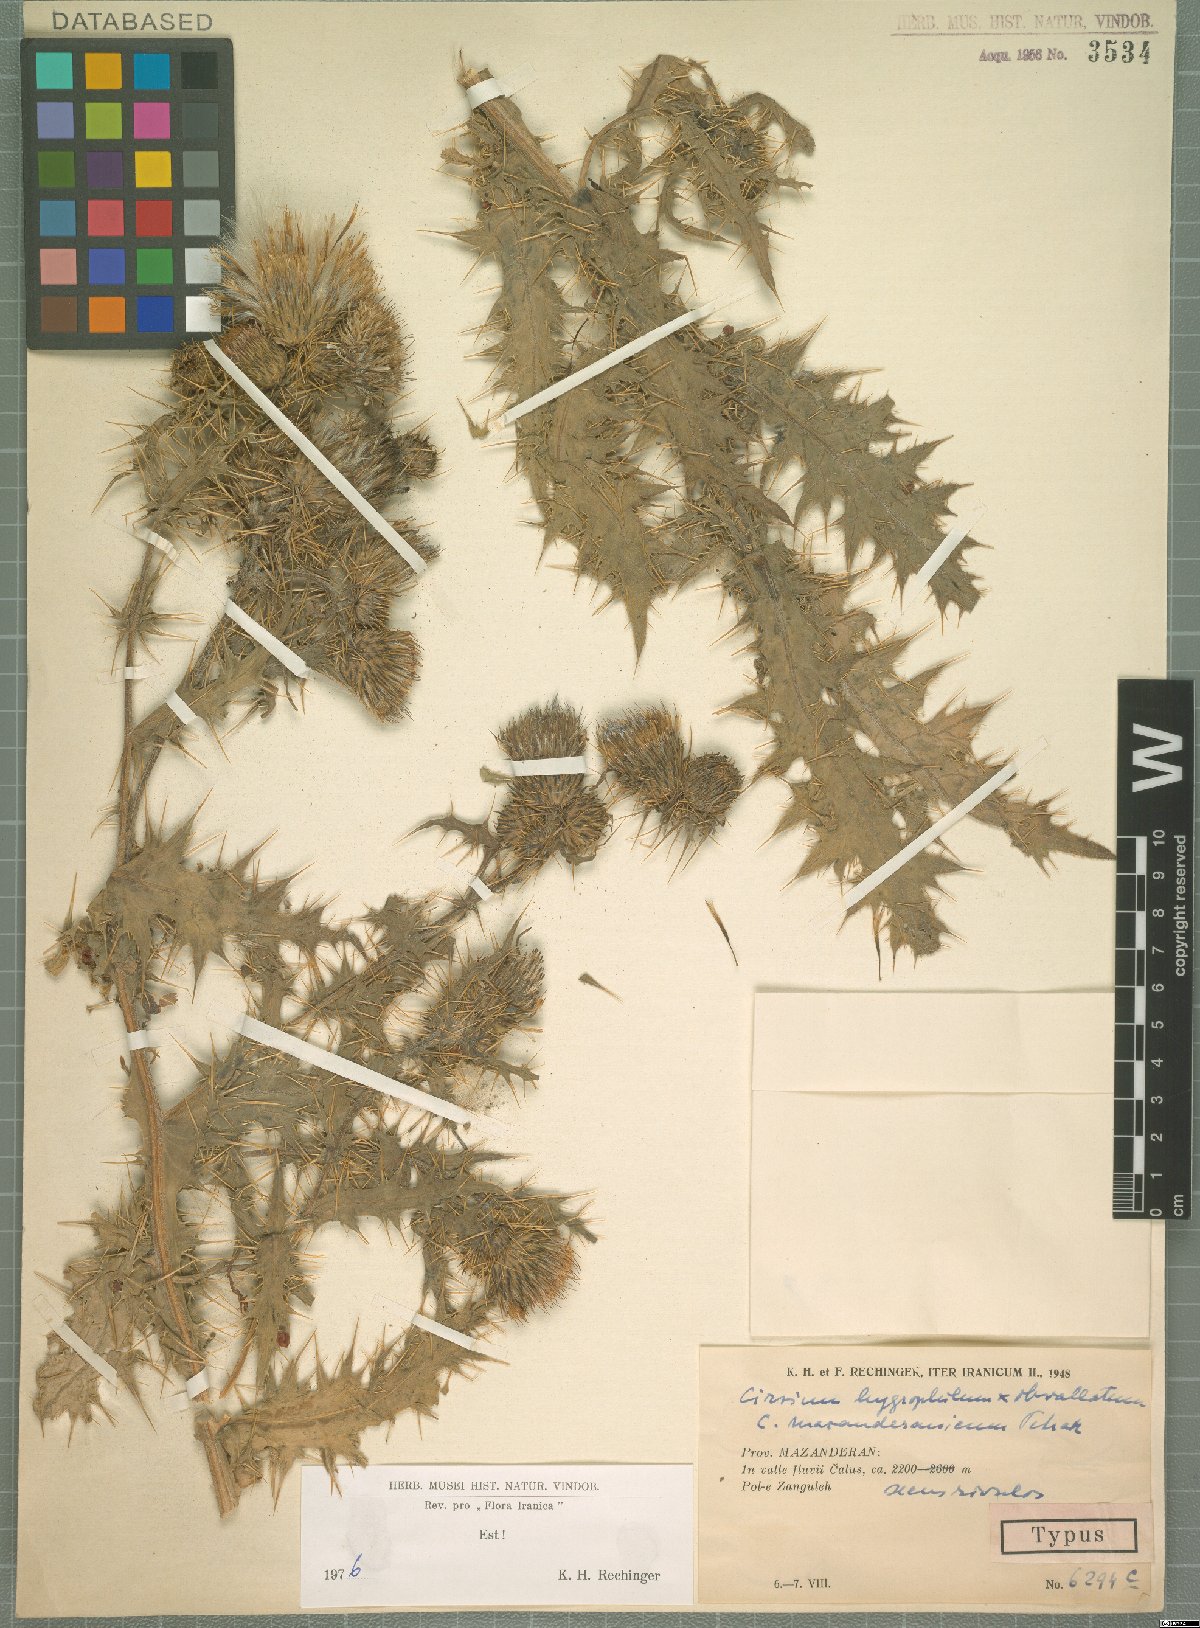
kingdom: Plantae
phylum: Tracheophyta
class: Magnoliopsida
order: Asterales
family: Asteraceae
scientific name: Asteraceae
